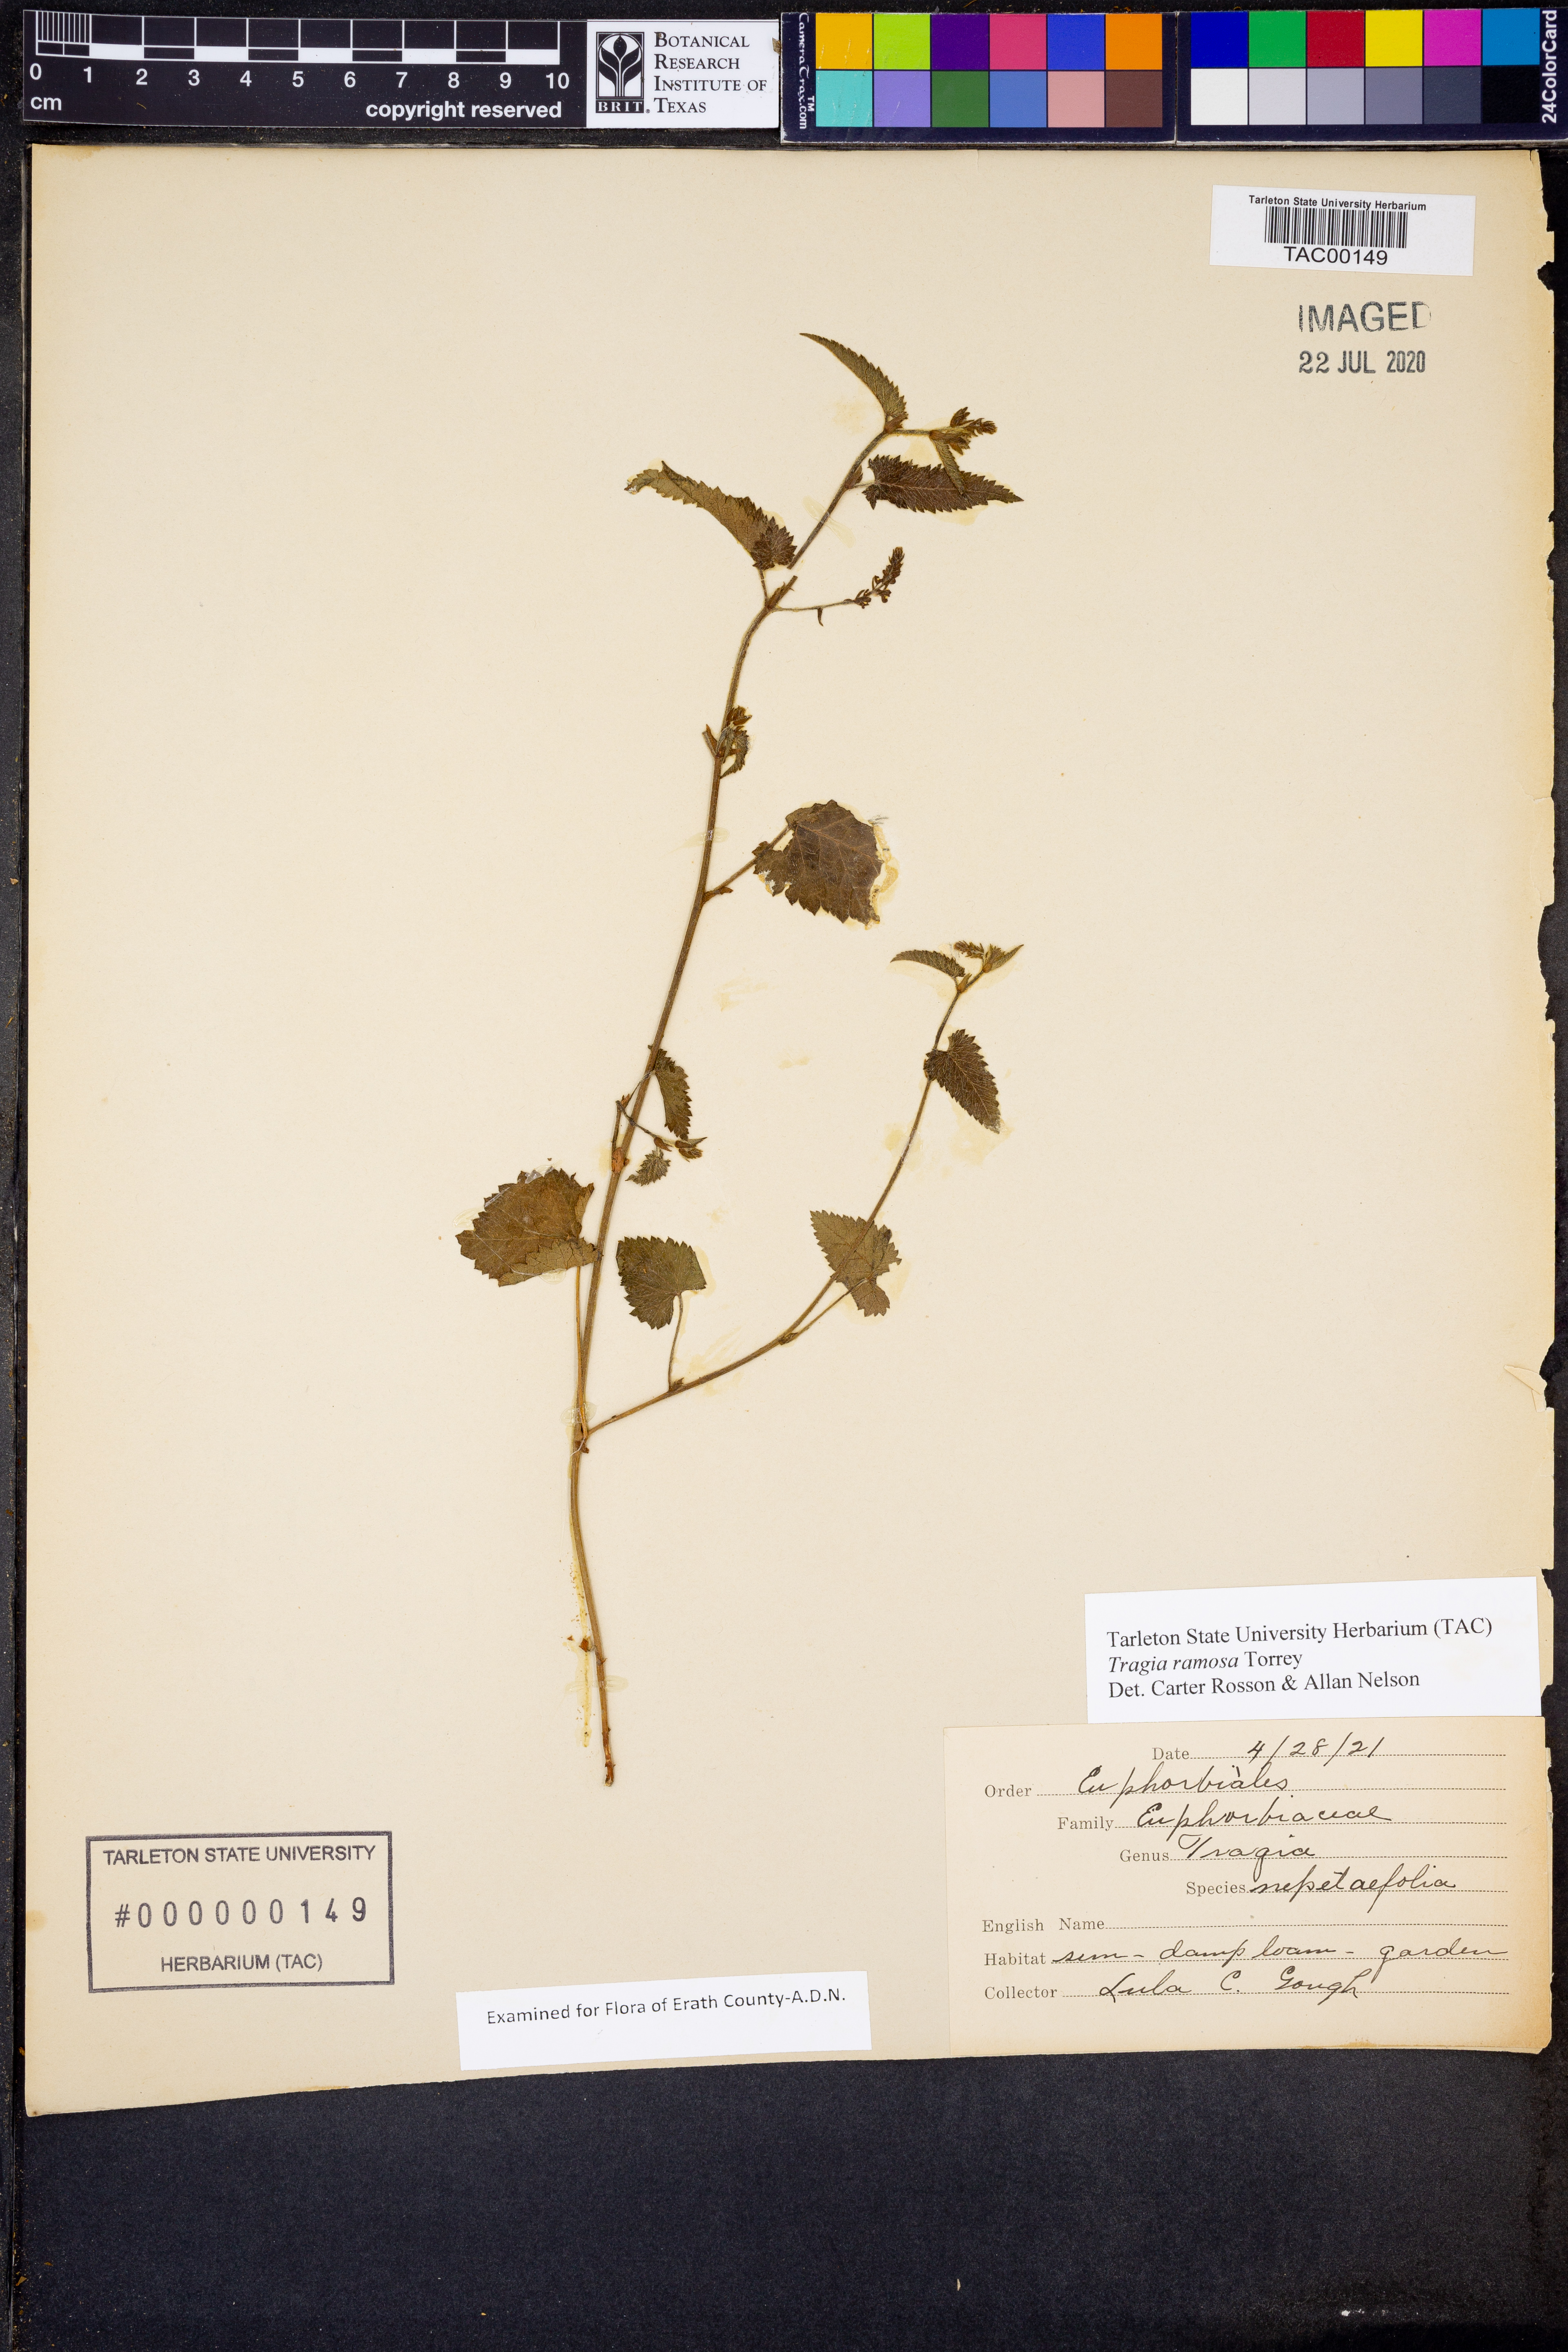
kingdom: Plantae
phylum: Tracheophyta
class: Magnoliopsida
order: Malpighiales
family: Euphorbiaceae
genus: Tragia
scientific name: Tragia ramosa
